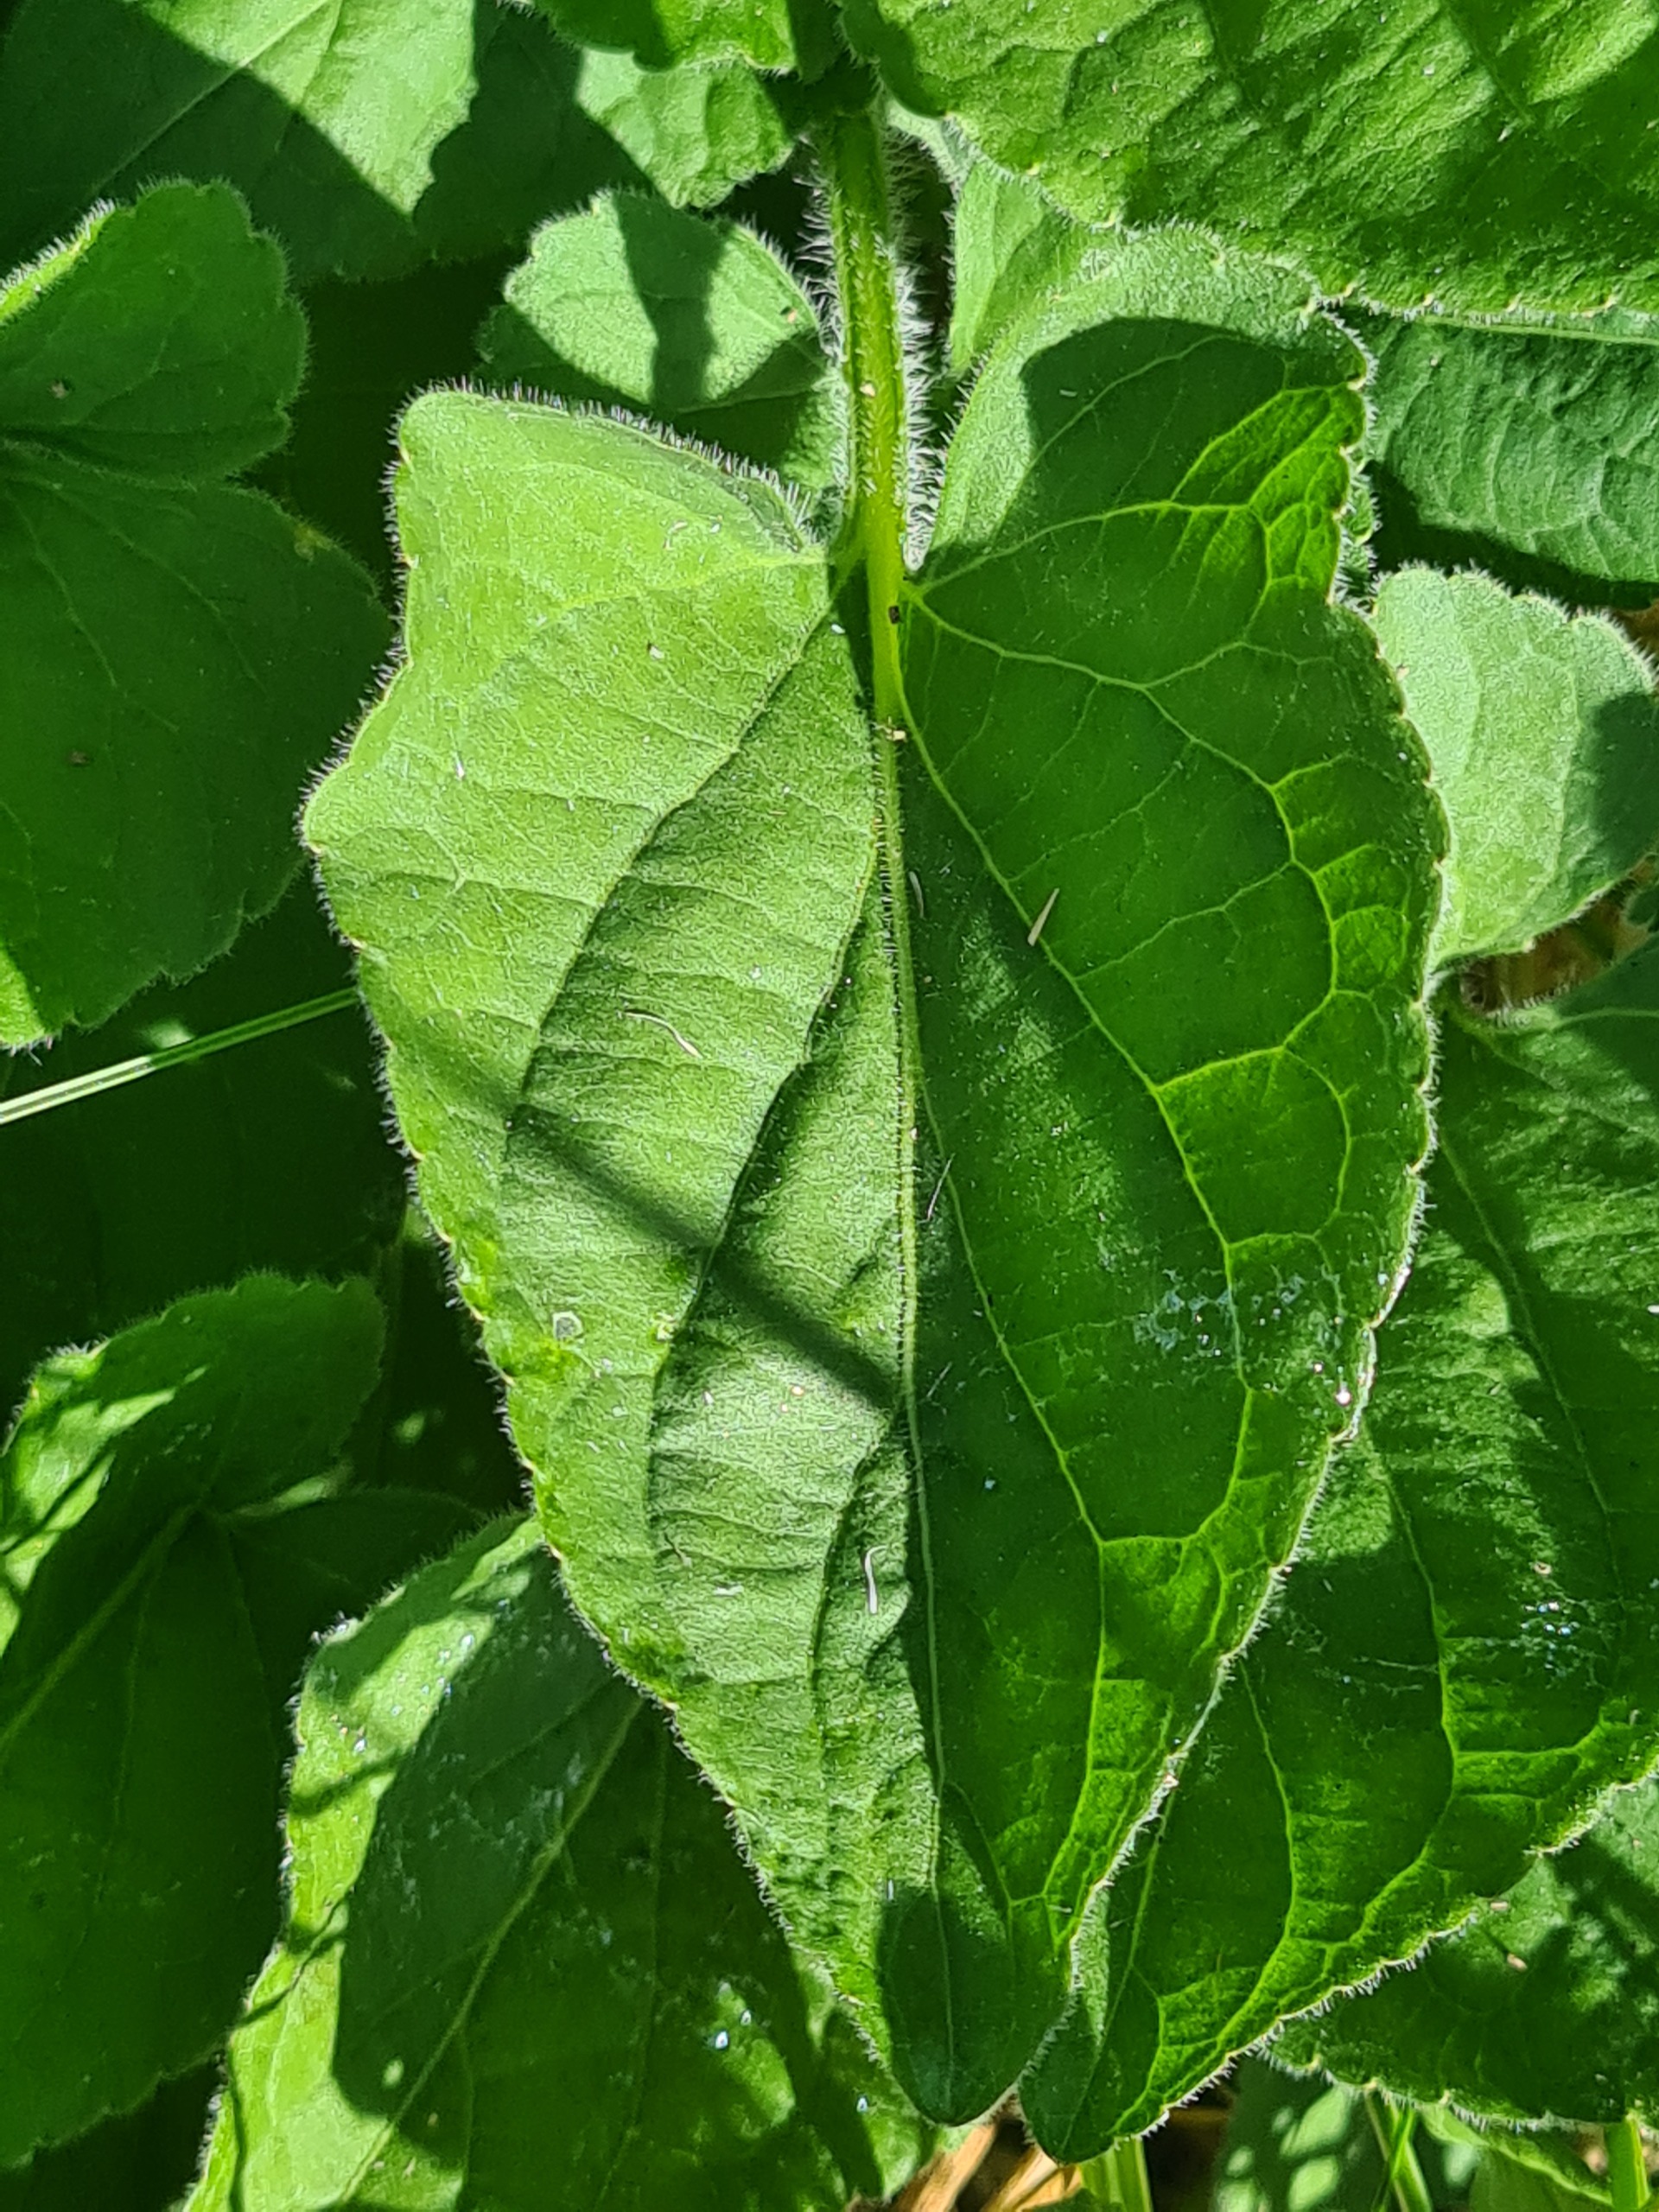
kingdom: Plantae
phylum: Tracheophyta
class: Magnoliopsida
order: Malpighiales
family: Violaceae
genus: Viola
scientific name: Viola hirta
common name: Håret viol
